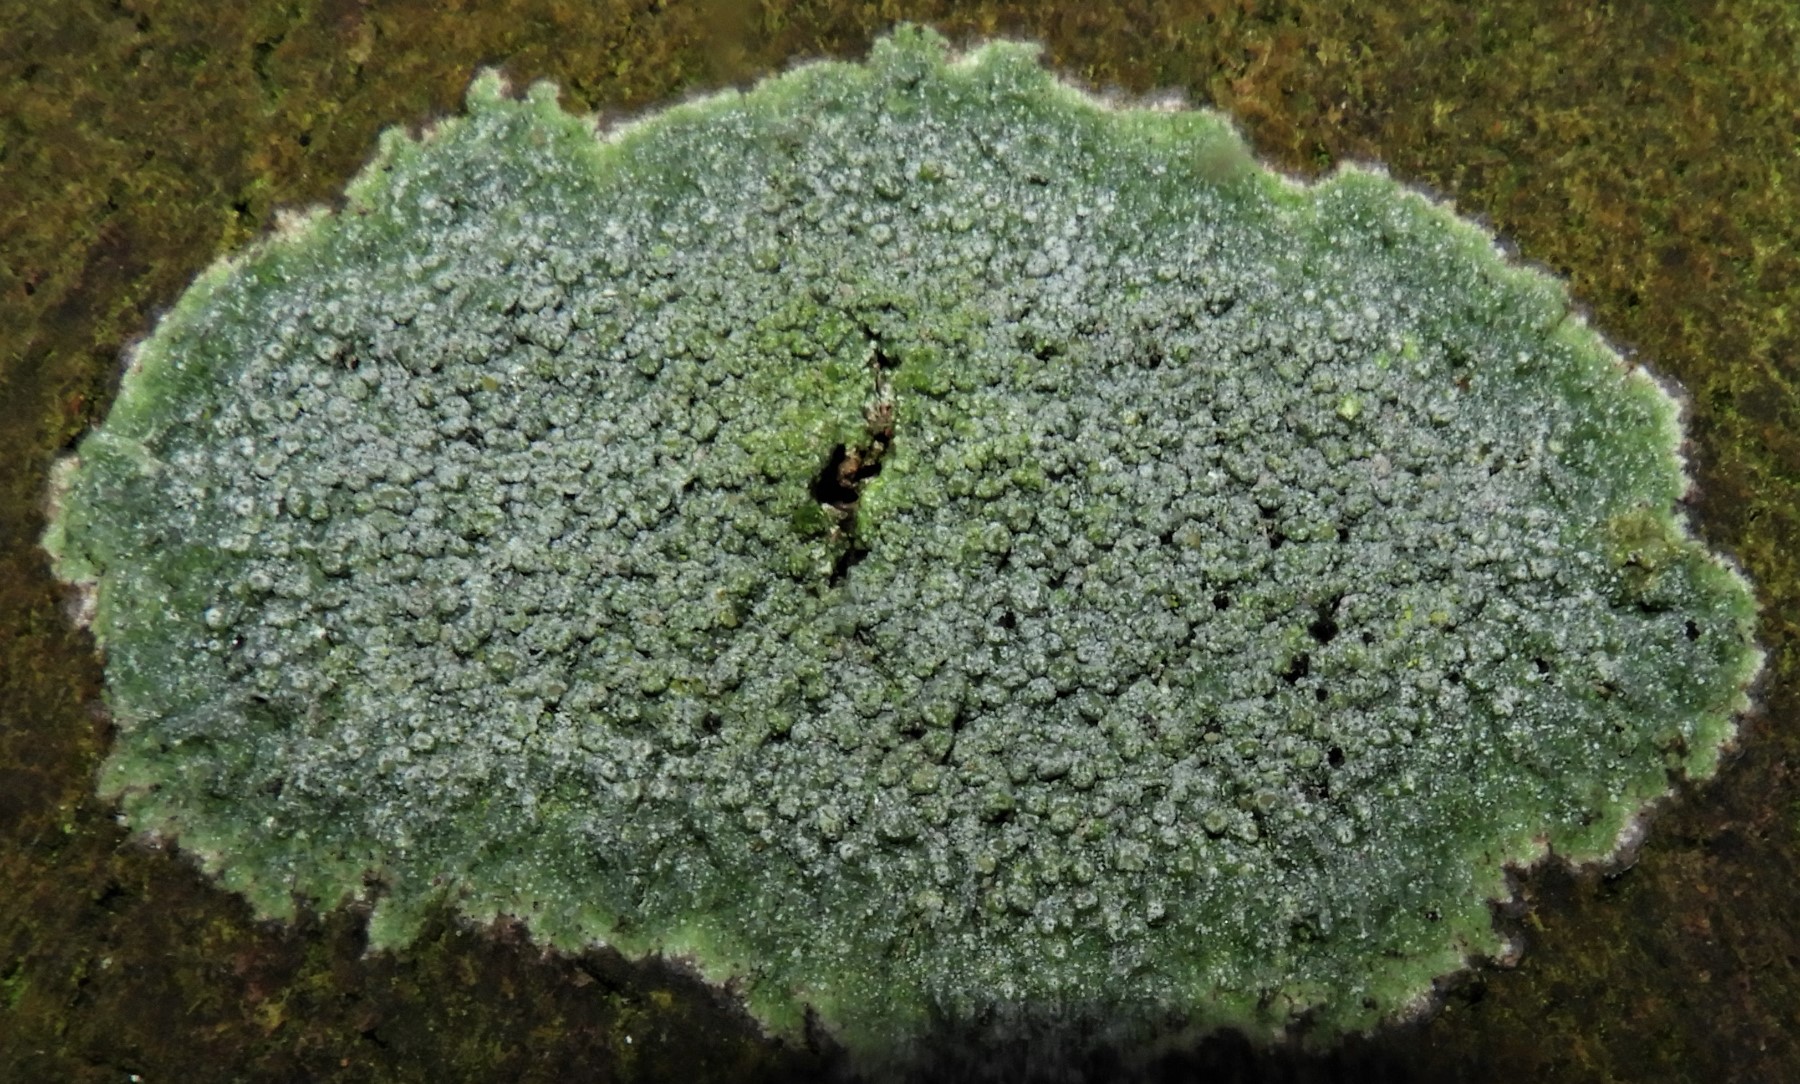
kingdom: Fungi
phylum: Ascomycota
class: Lecanoromycetes
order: Pertusariales
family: Pertusariaceae
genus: Pertusaria
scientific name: Pertusaria hymenea
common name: åben prikvortelav
